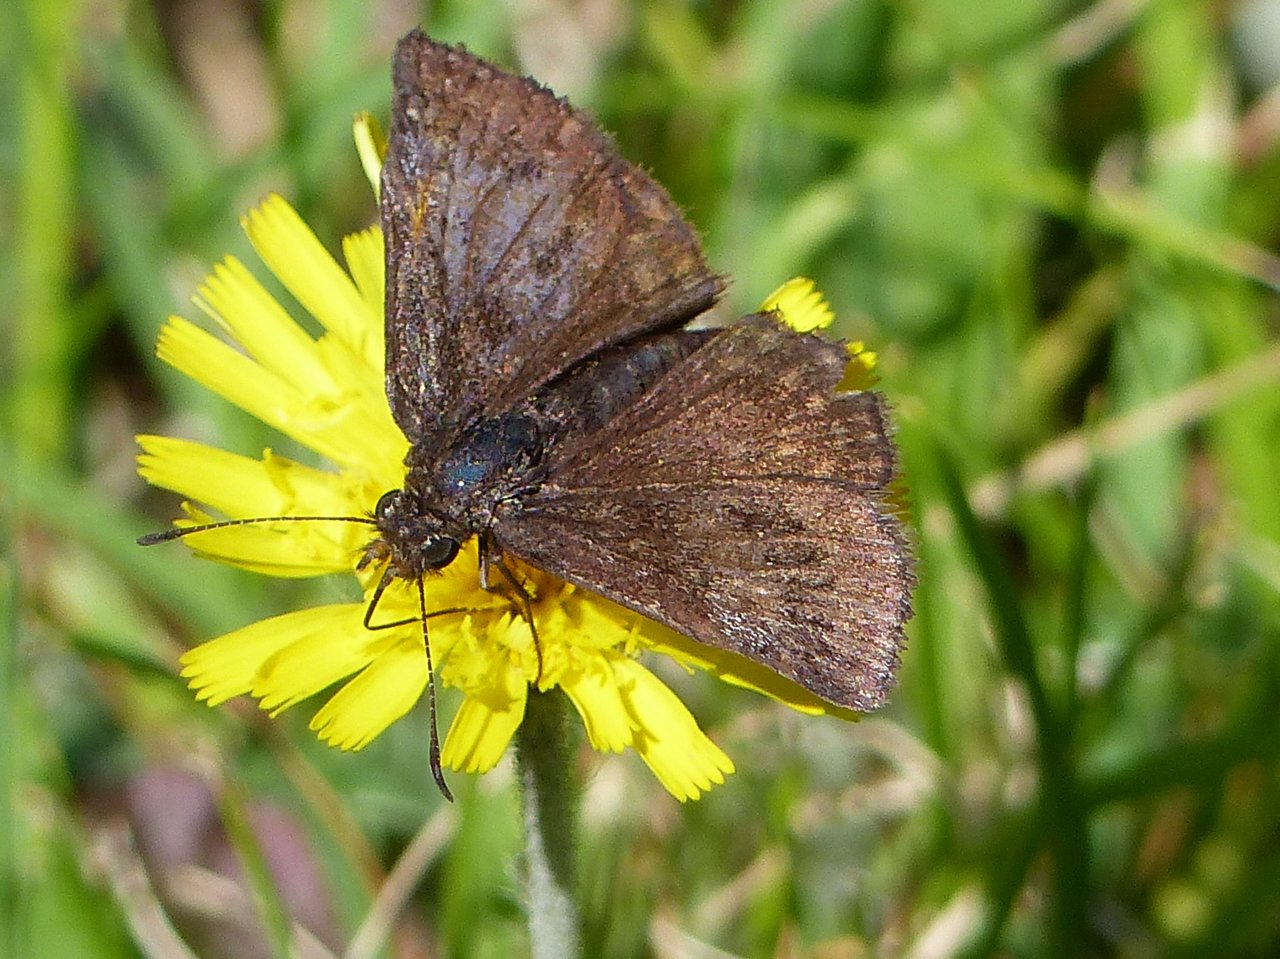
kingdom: Animalia
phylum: Arthropoda
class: Insecta
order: Lepidoptera
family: Hesperiidae
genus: Erynnis
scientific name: Erynnis icelus
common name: Dreamy Duskywing
